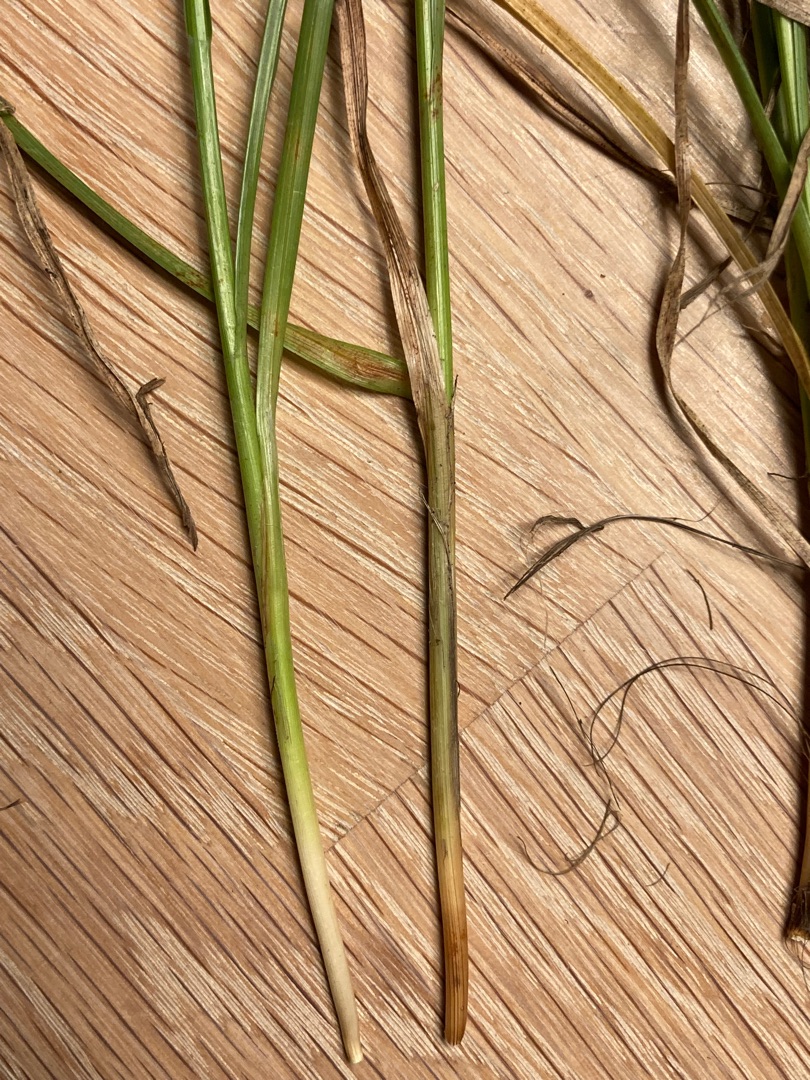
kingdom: Plantae
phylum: Tracheophyta
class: Liliopsida
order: Poales
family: Cyperaceae
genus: Carex
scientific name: Carex pairae
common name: Pigget star
